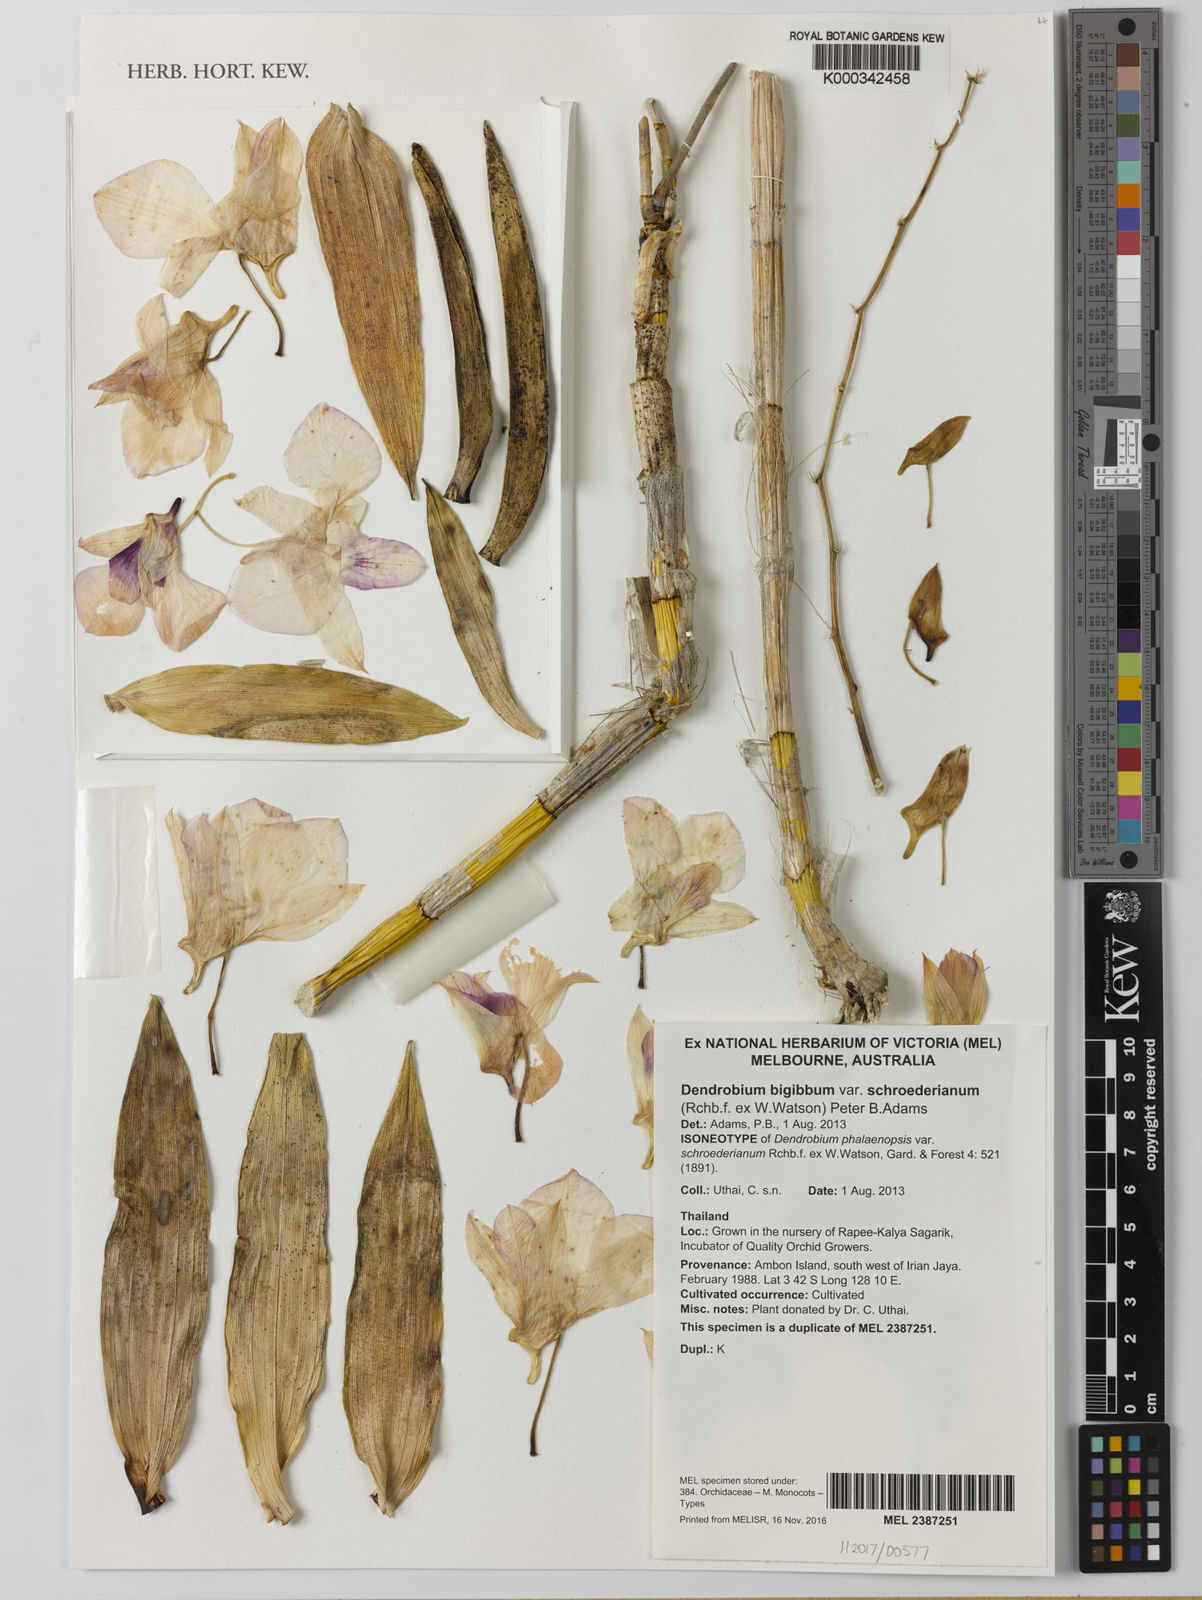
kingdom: Plantae
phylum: Tracheophyta
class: Liliopsida
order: Asparagales
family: Orchidaceae
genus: Dendrobium
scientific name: Dendrobium bigibbum
